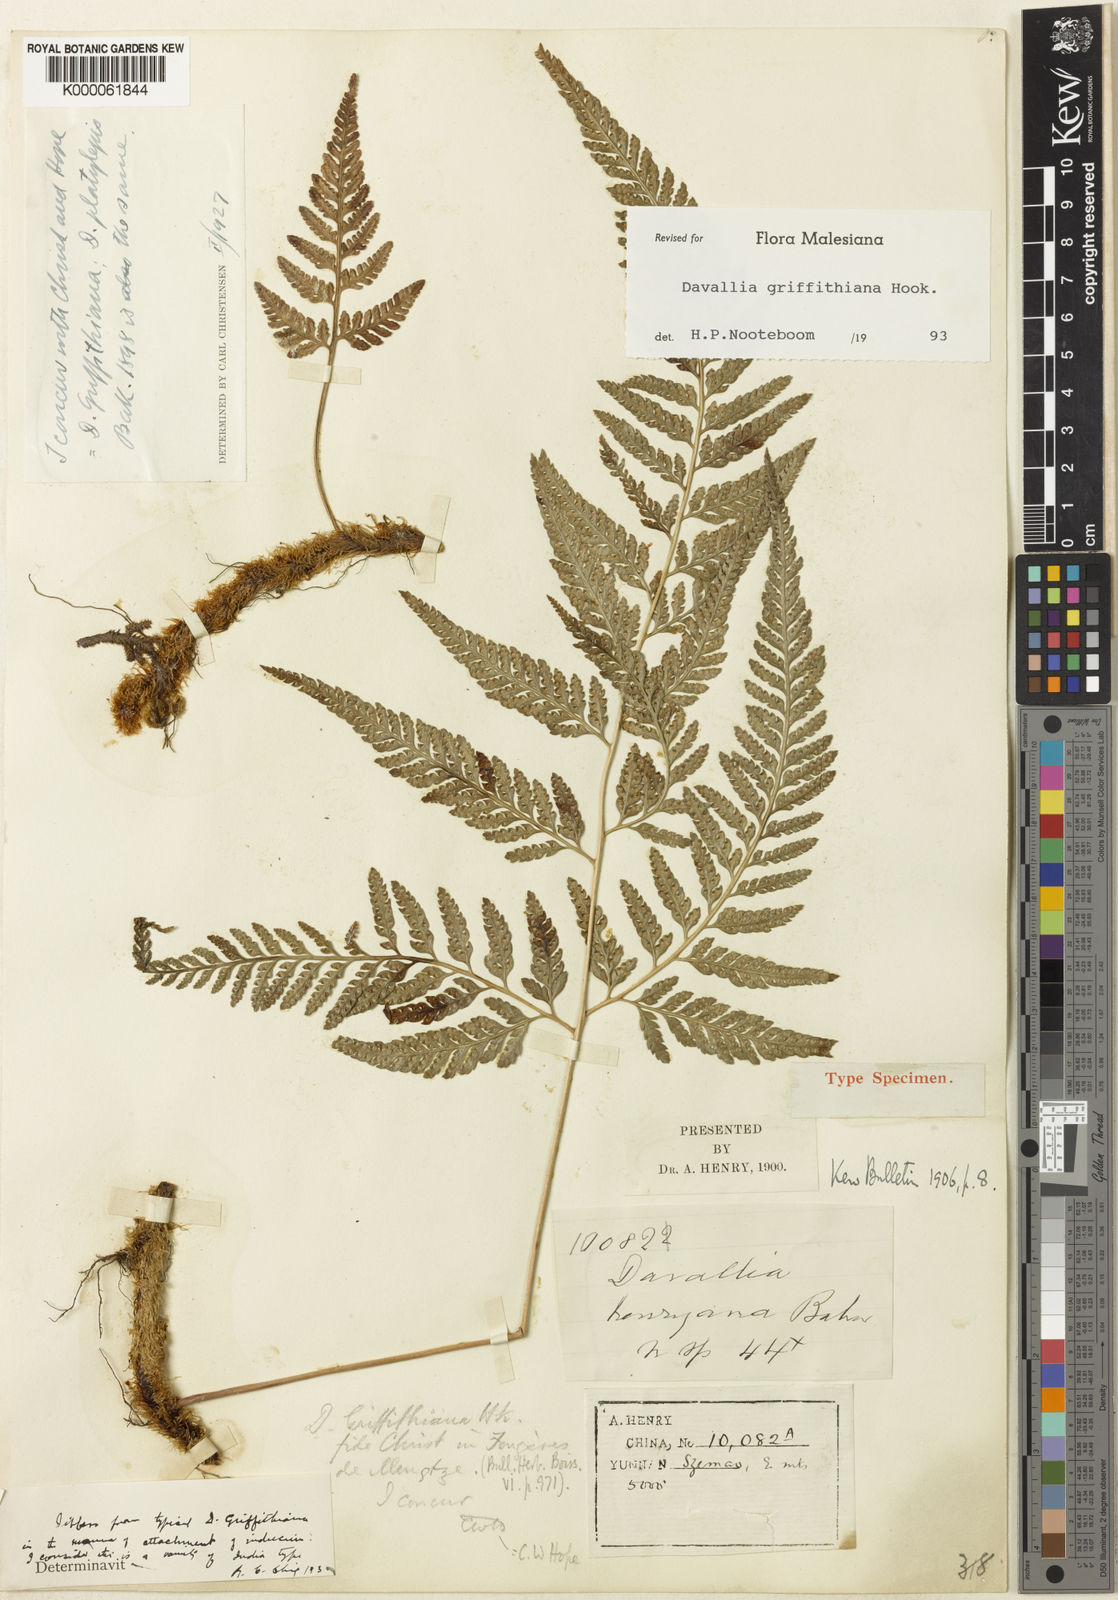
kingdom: Plantae
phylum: Tracheophyta
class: Polypodiopsida
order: Polypodiales
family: Davalliaceae
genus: Davallia
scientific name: Davallia griffithiana
